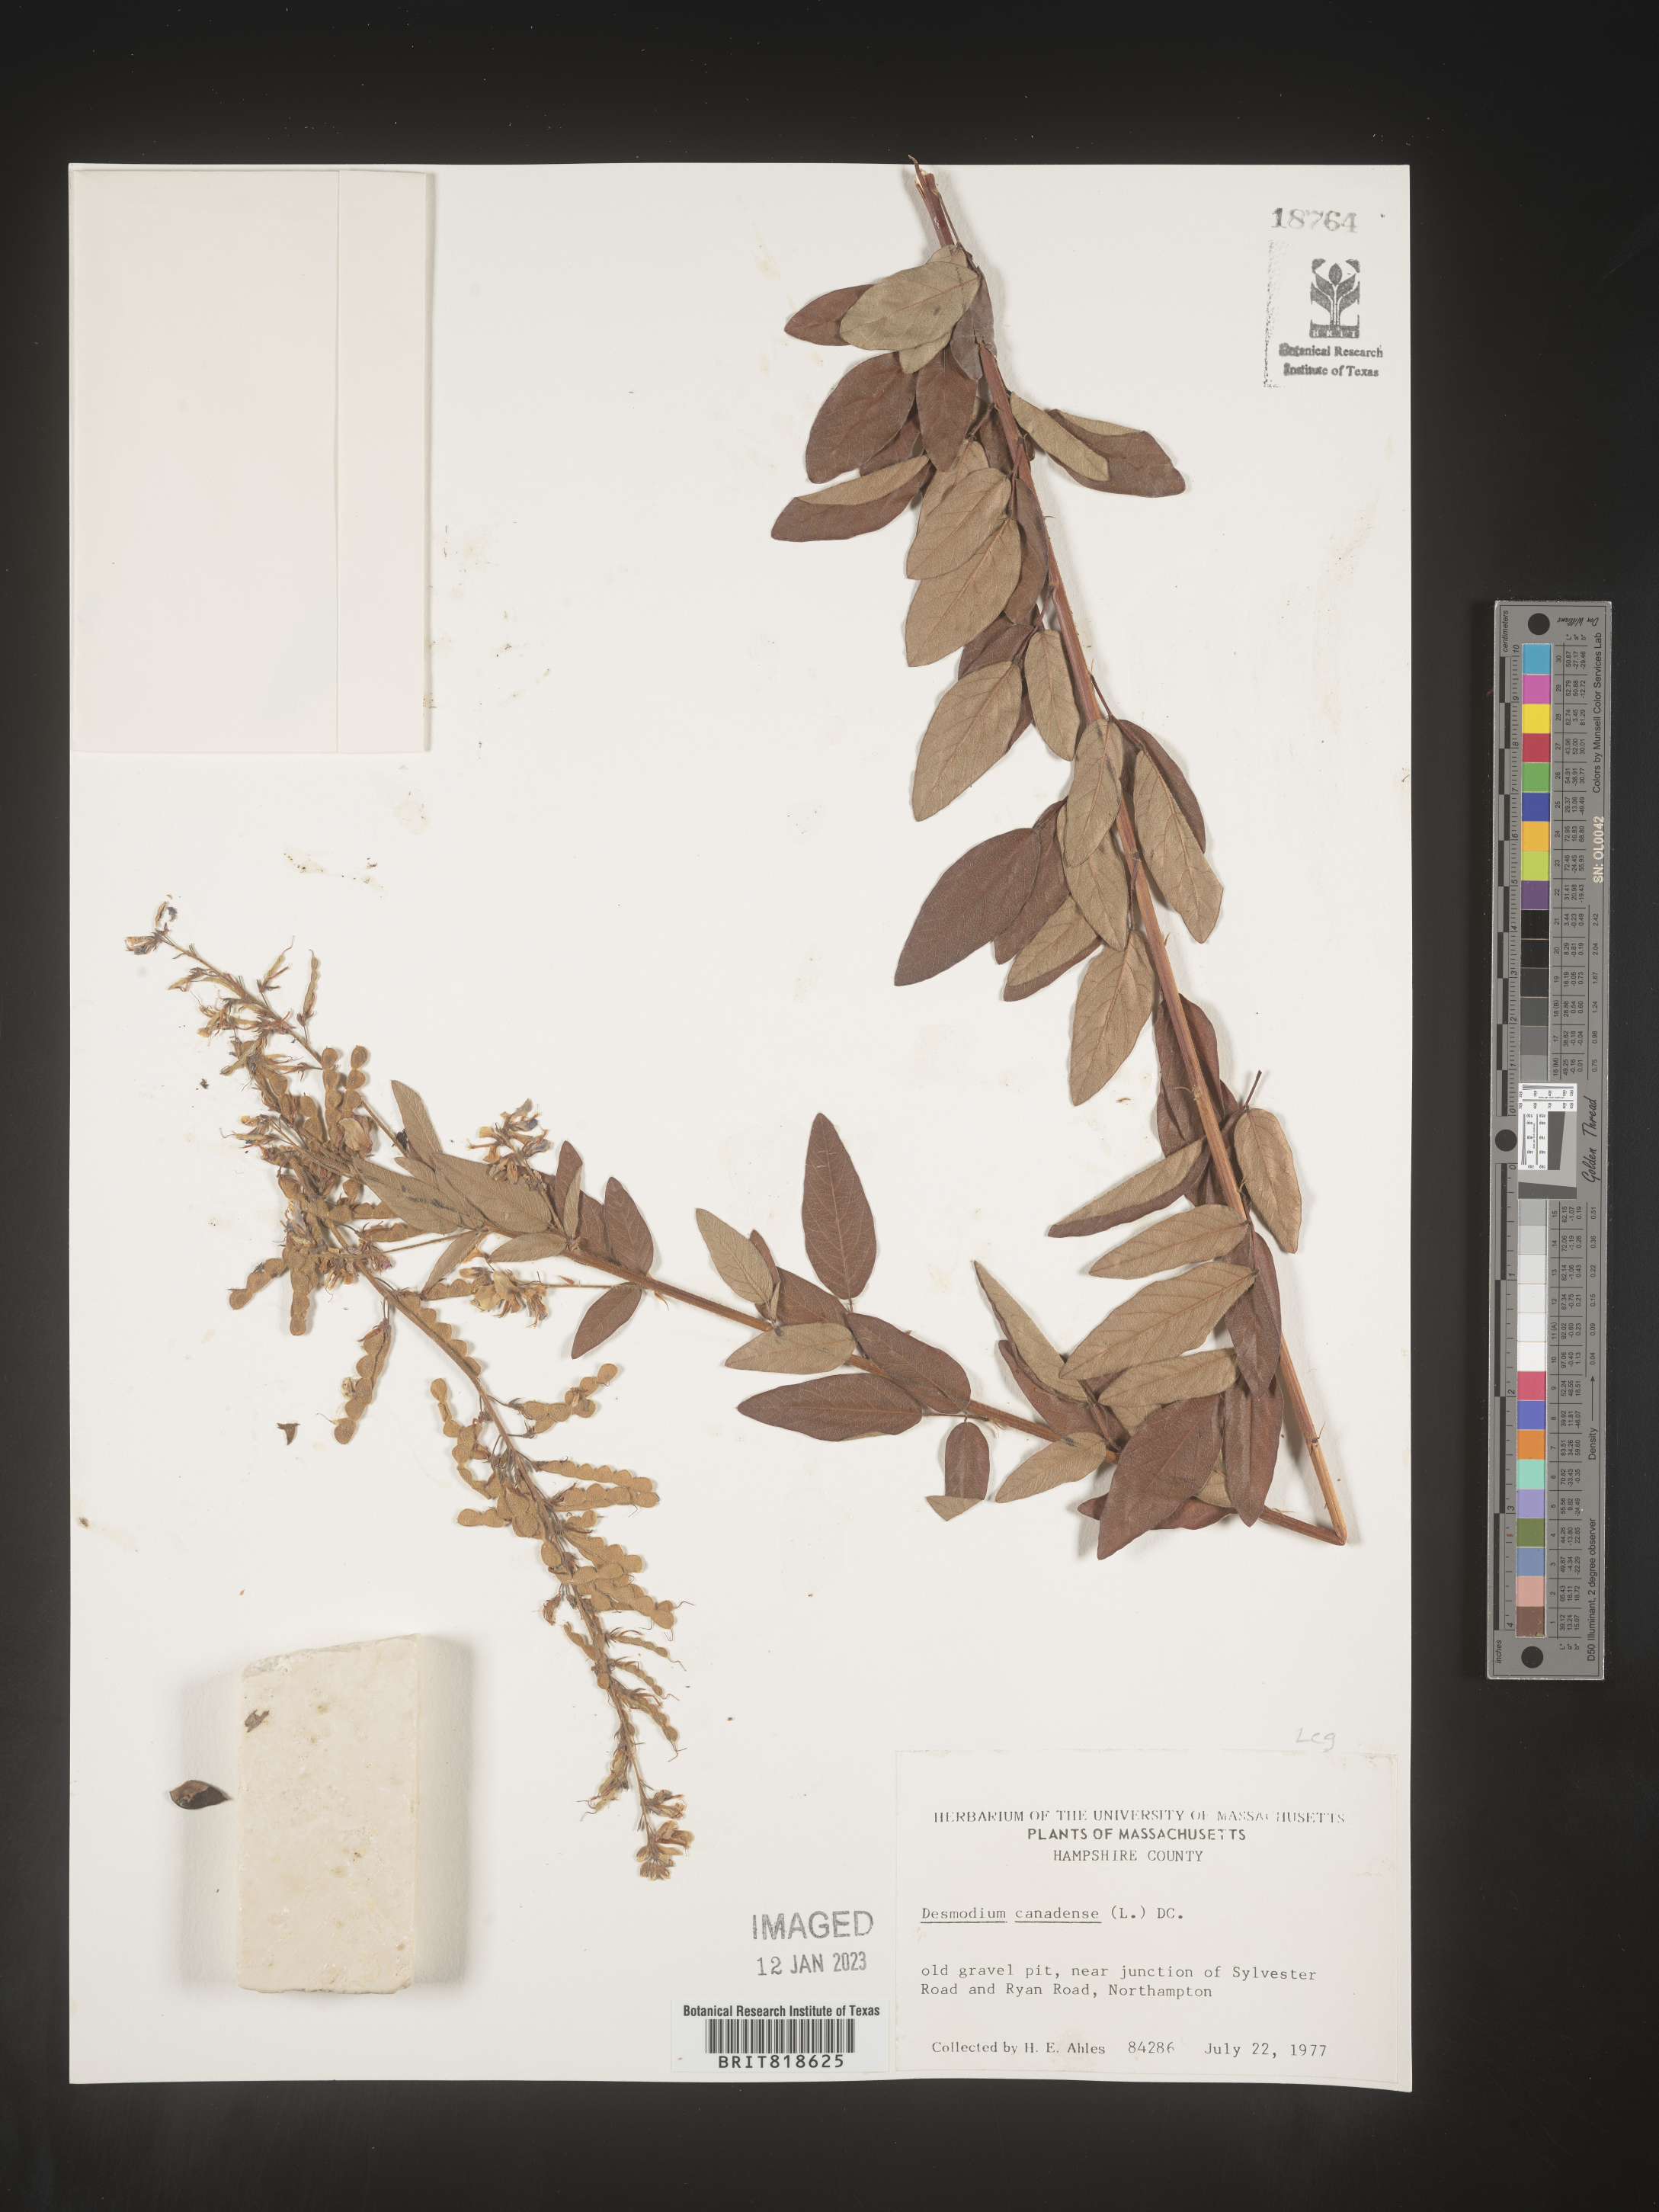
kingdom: Plantae
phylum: Tracheophyta
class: Magnoliopsida
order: Fabales
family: Fabaceae
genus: Desmodium
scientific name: Desmodium canadense
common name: Canada tick-trefoil
